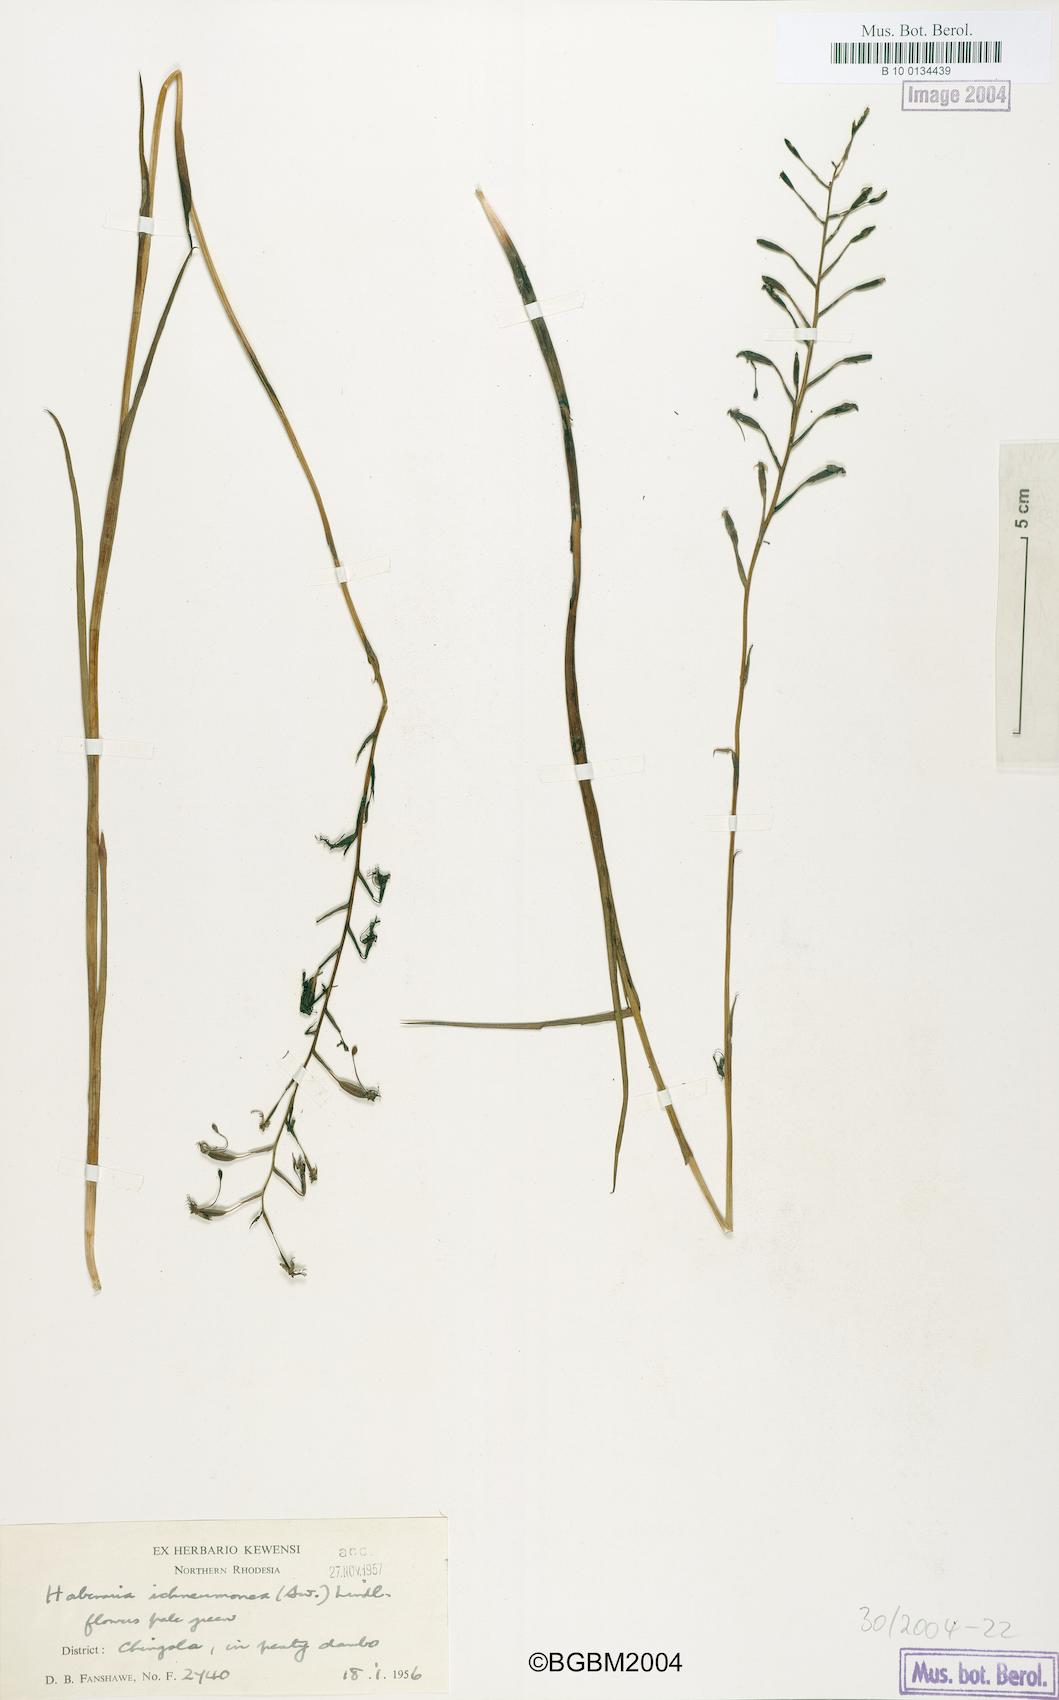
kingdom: Plantae
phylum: Tracheophyta
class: Liliopsida
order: Asparagales
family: Orchidaceae
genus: Habenaria
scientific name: Habenaria ichneumonea
